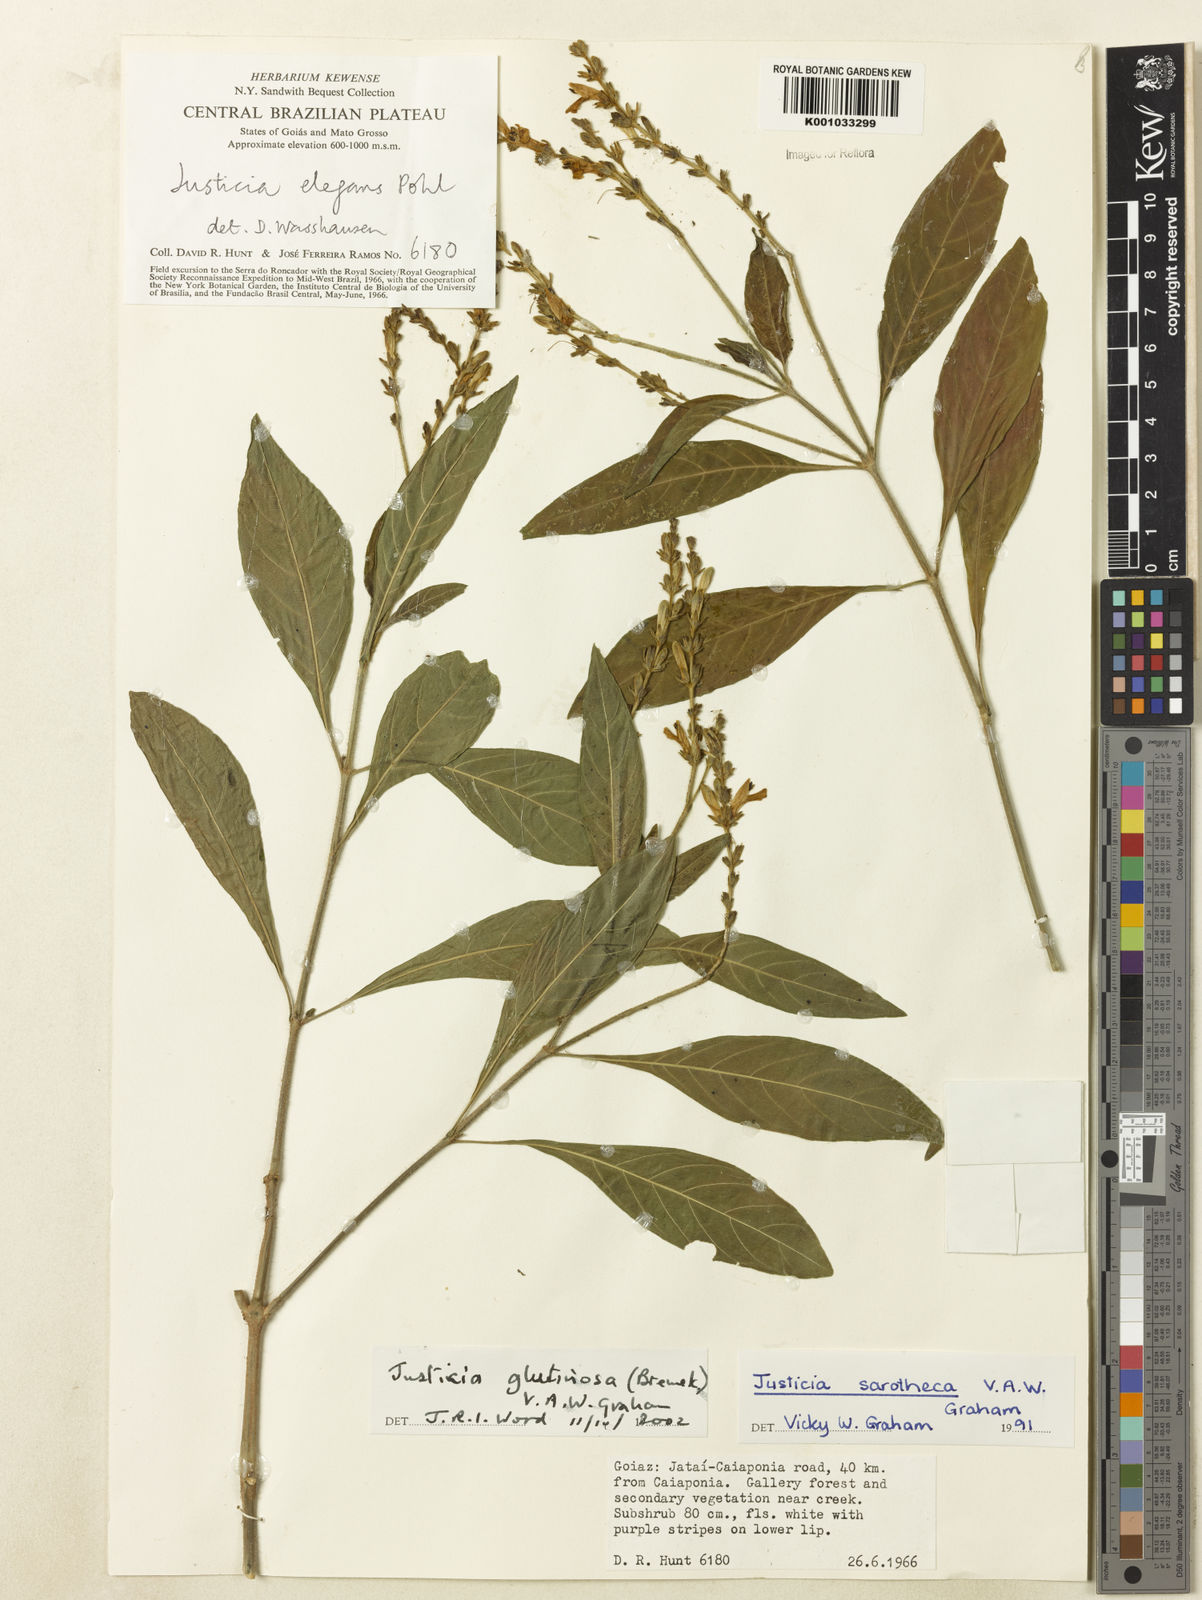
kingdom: Plantae
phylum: Tracheophyta
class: Magnoliopsida
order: Lamiales
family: Acanthaceae
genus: Justicia
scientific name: Justicia glutinosa
